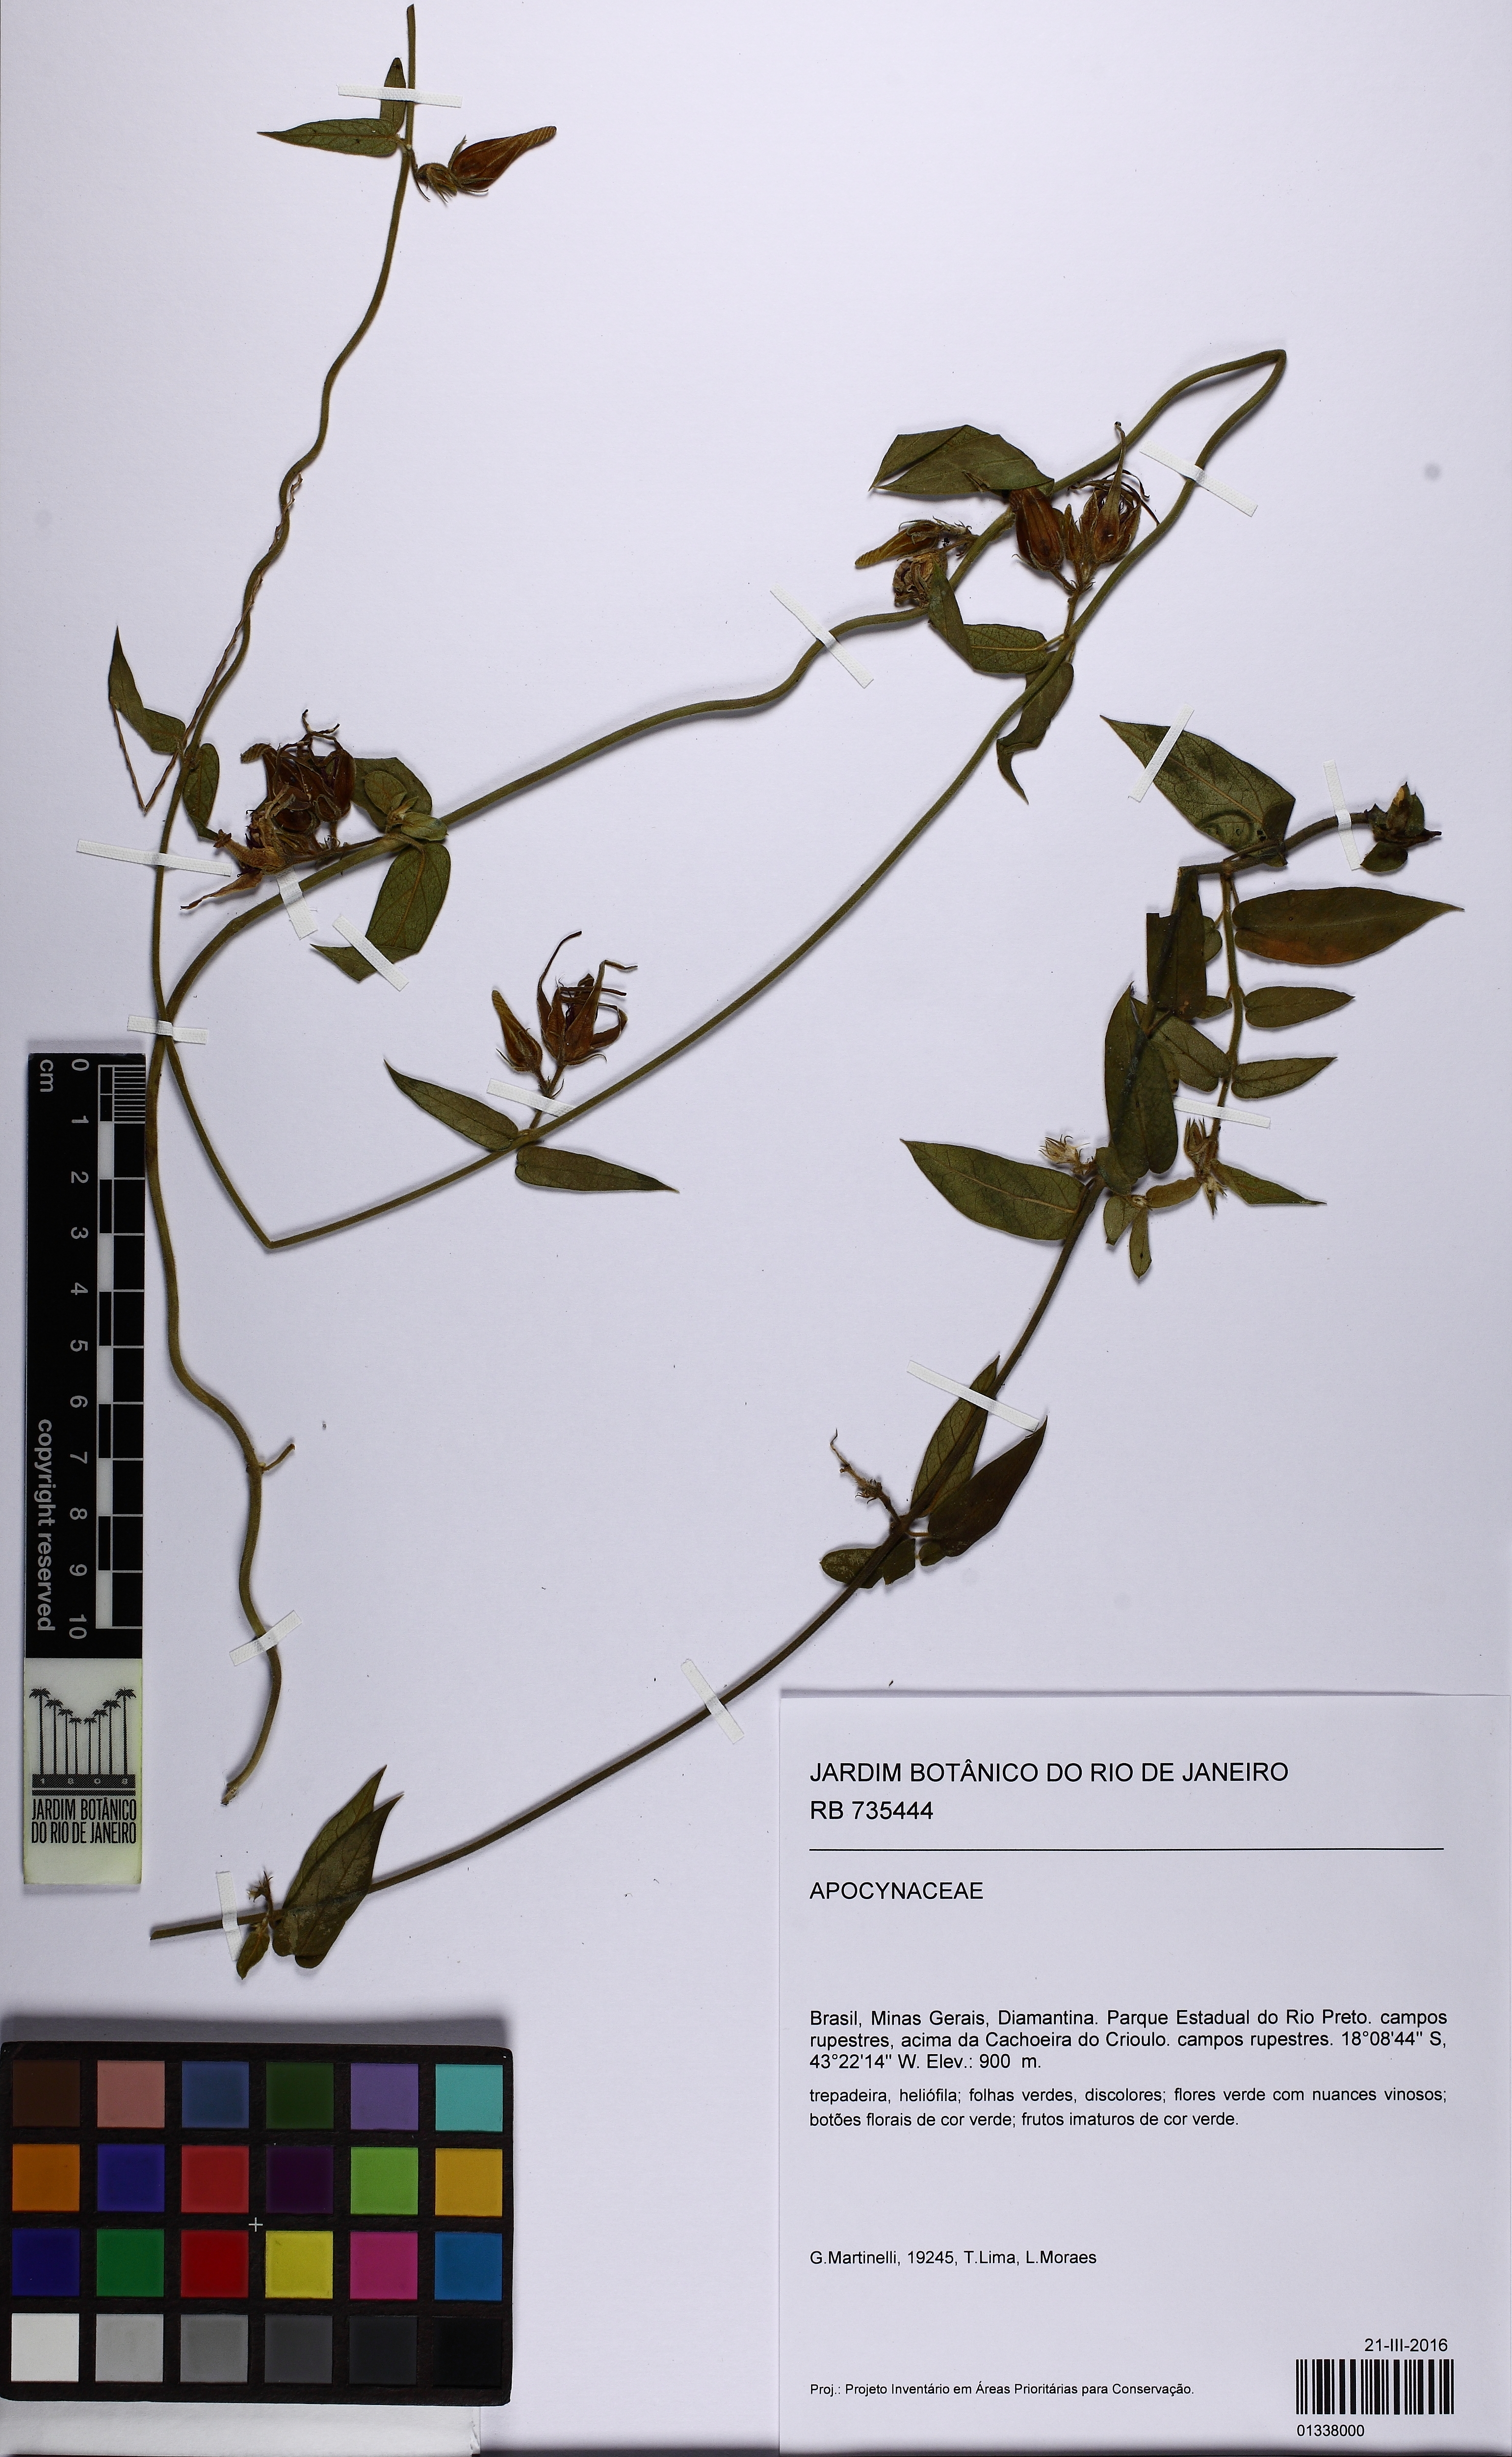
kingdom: Plantae
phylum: Tracheophyta
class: Magnoliopsida
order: Gentianales
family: Apocynaceae
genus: Oxypetalum
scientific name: Oxypetalum
